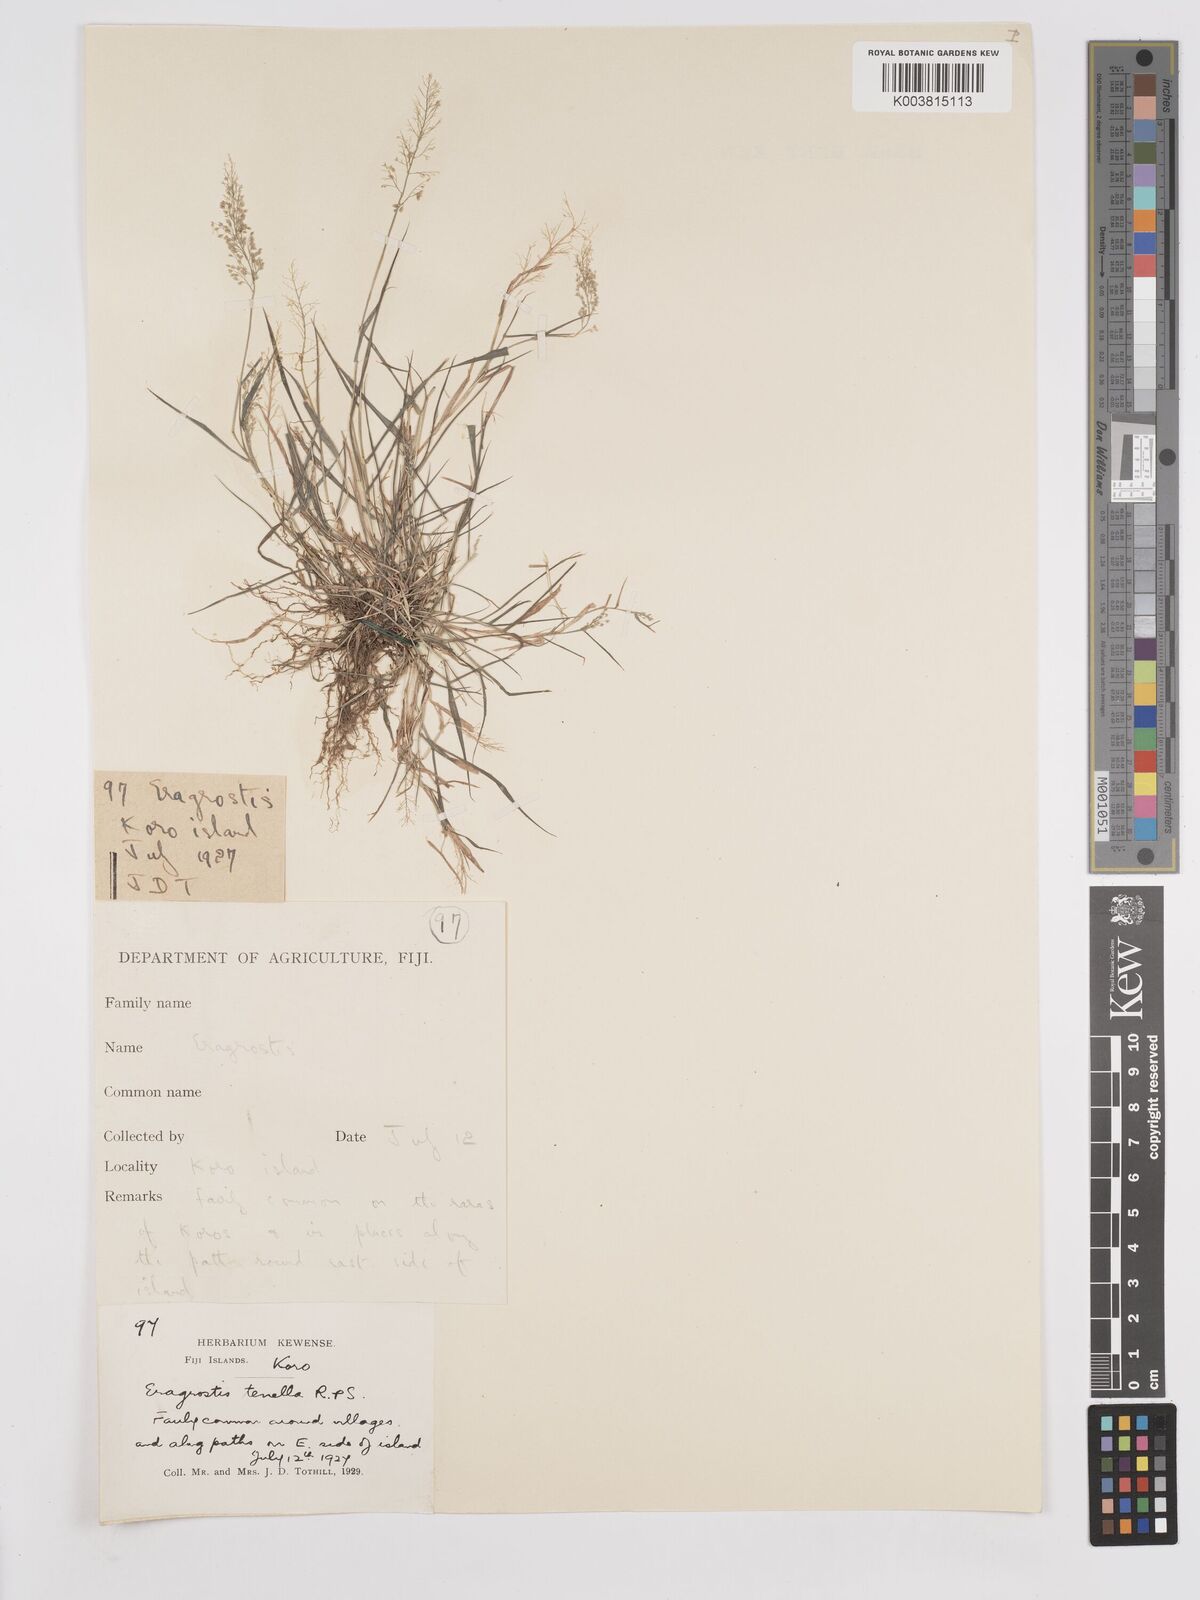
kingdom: Plantae
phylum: Tracheophyta
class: Liliopsida
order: Poales
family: Poaceae
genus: Eragrostis
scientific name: Eragrostis tenella
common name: Japanese lovegrass
